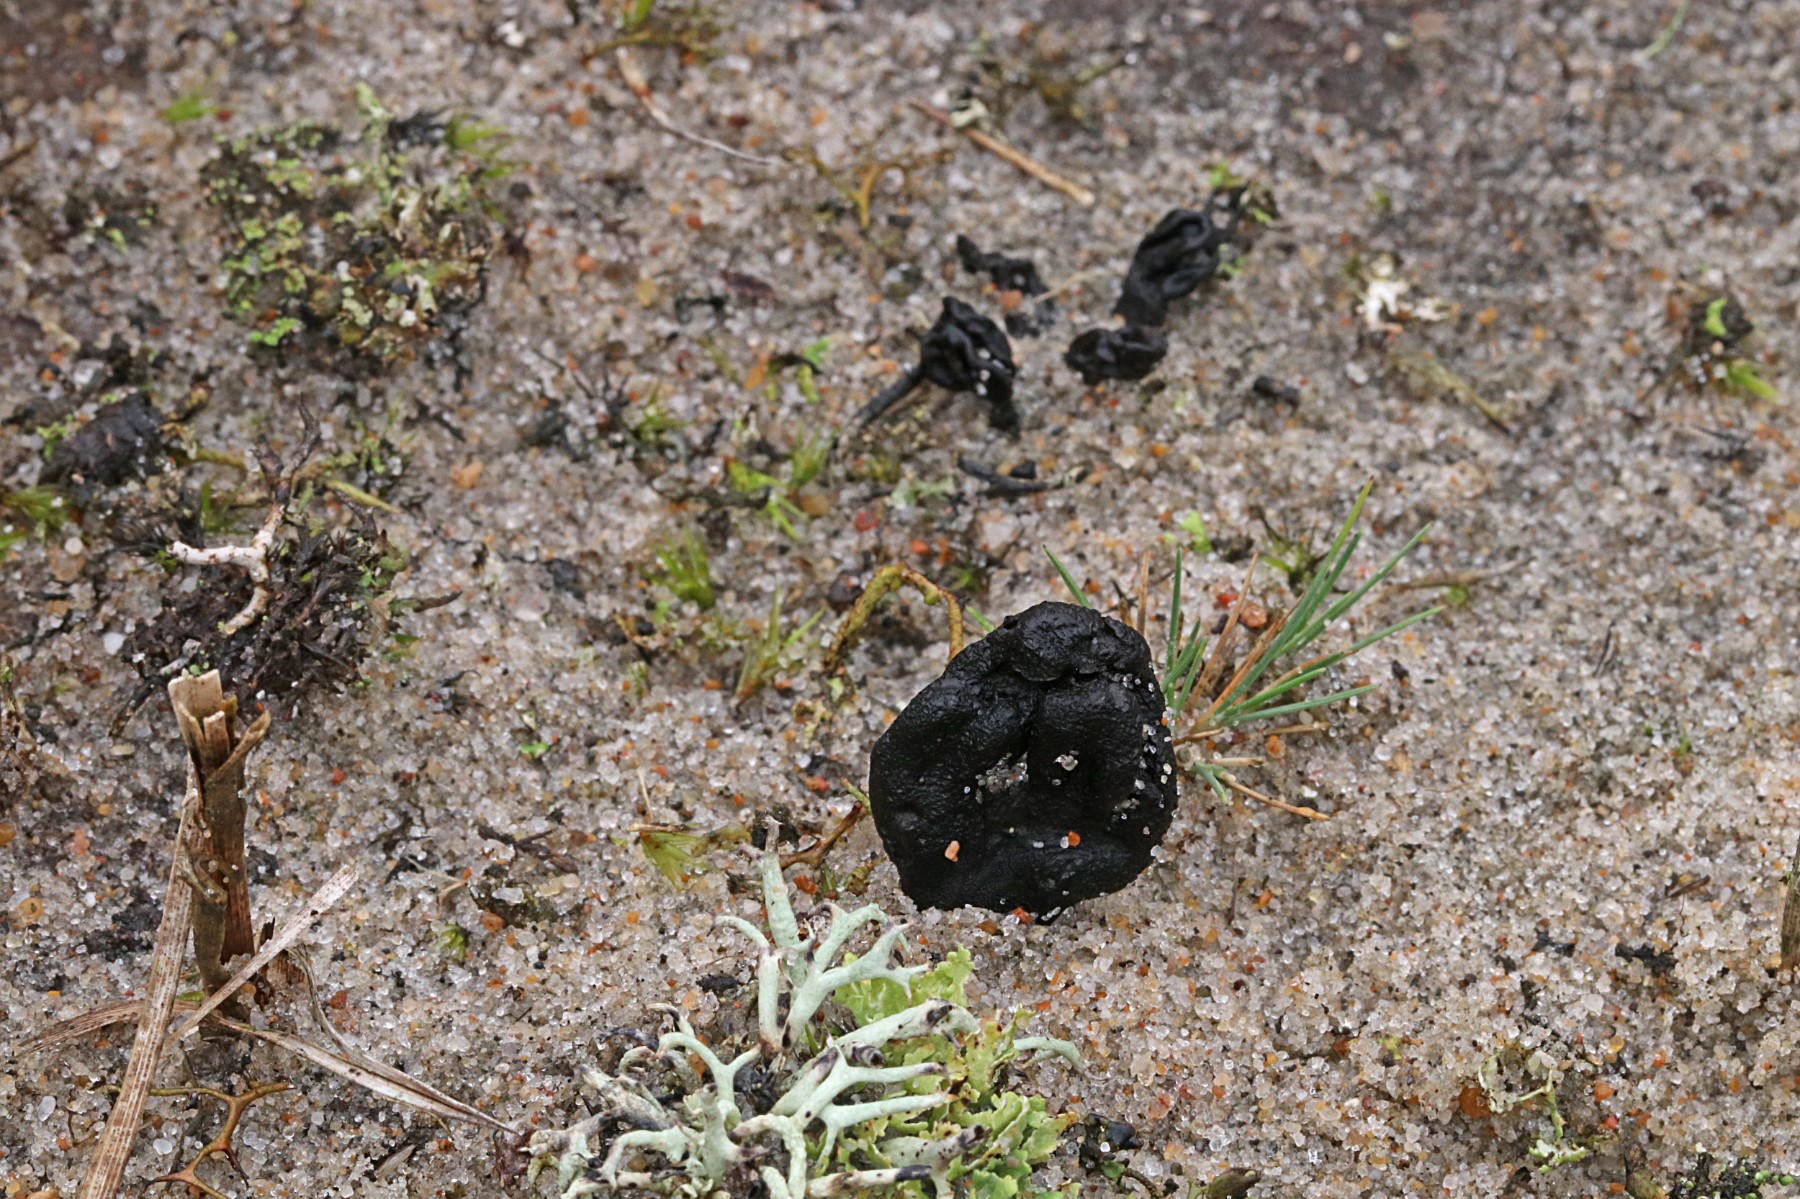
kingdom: Fungi
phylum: Ascomycota
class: Geoglossomycetes
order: Geoglossales
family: Geoglossaceae
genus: Sabuloglossum
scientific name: Sabuloglossum arenarium
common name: klit-jordtunge
